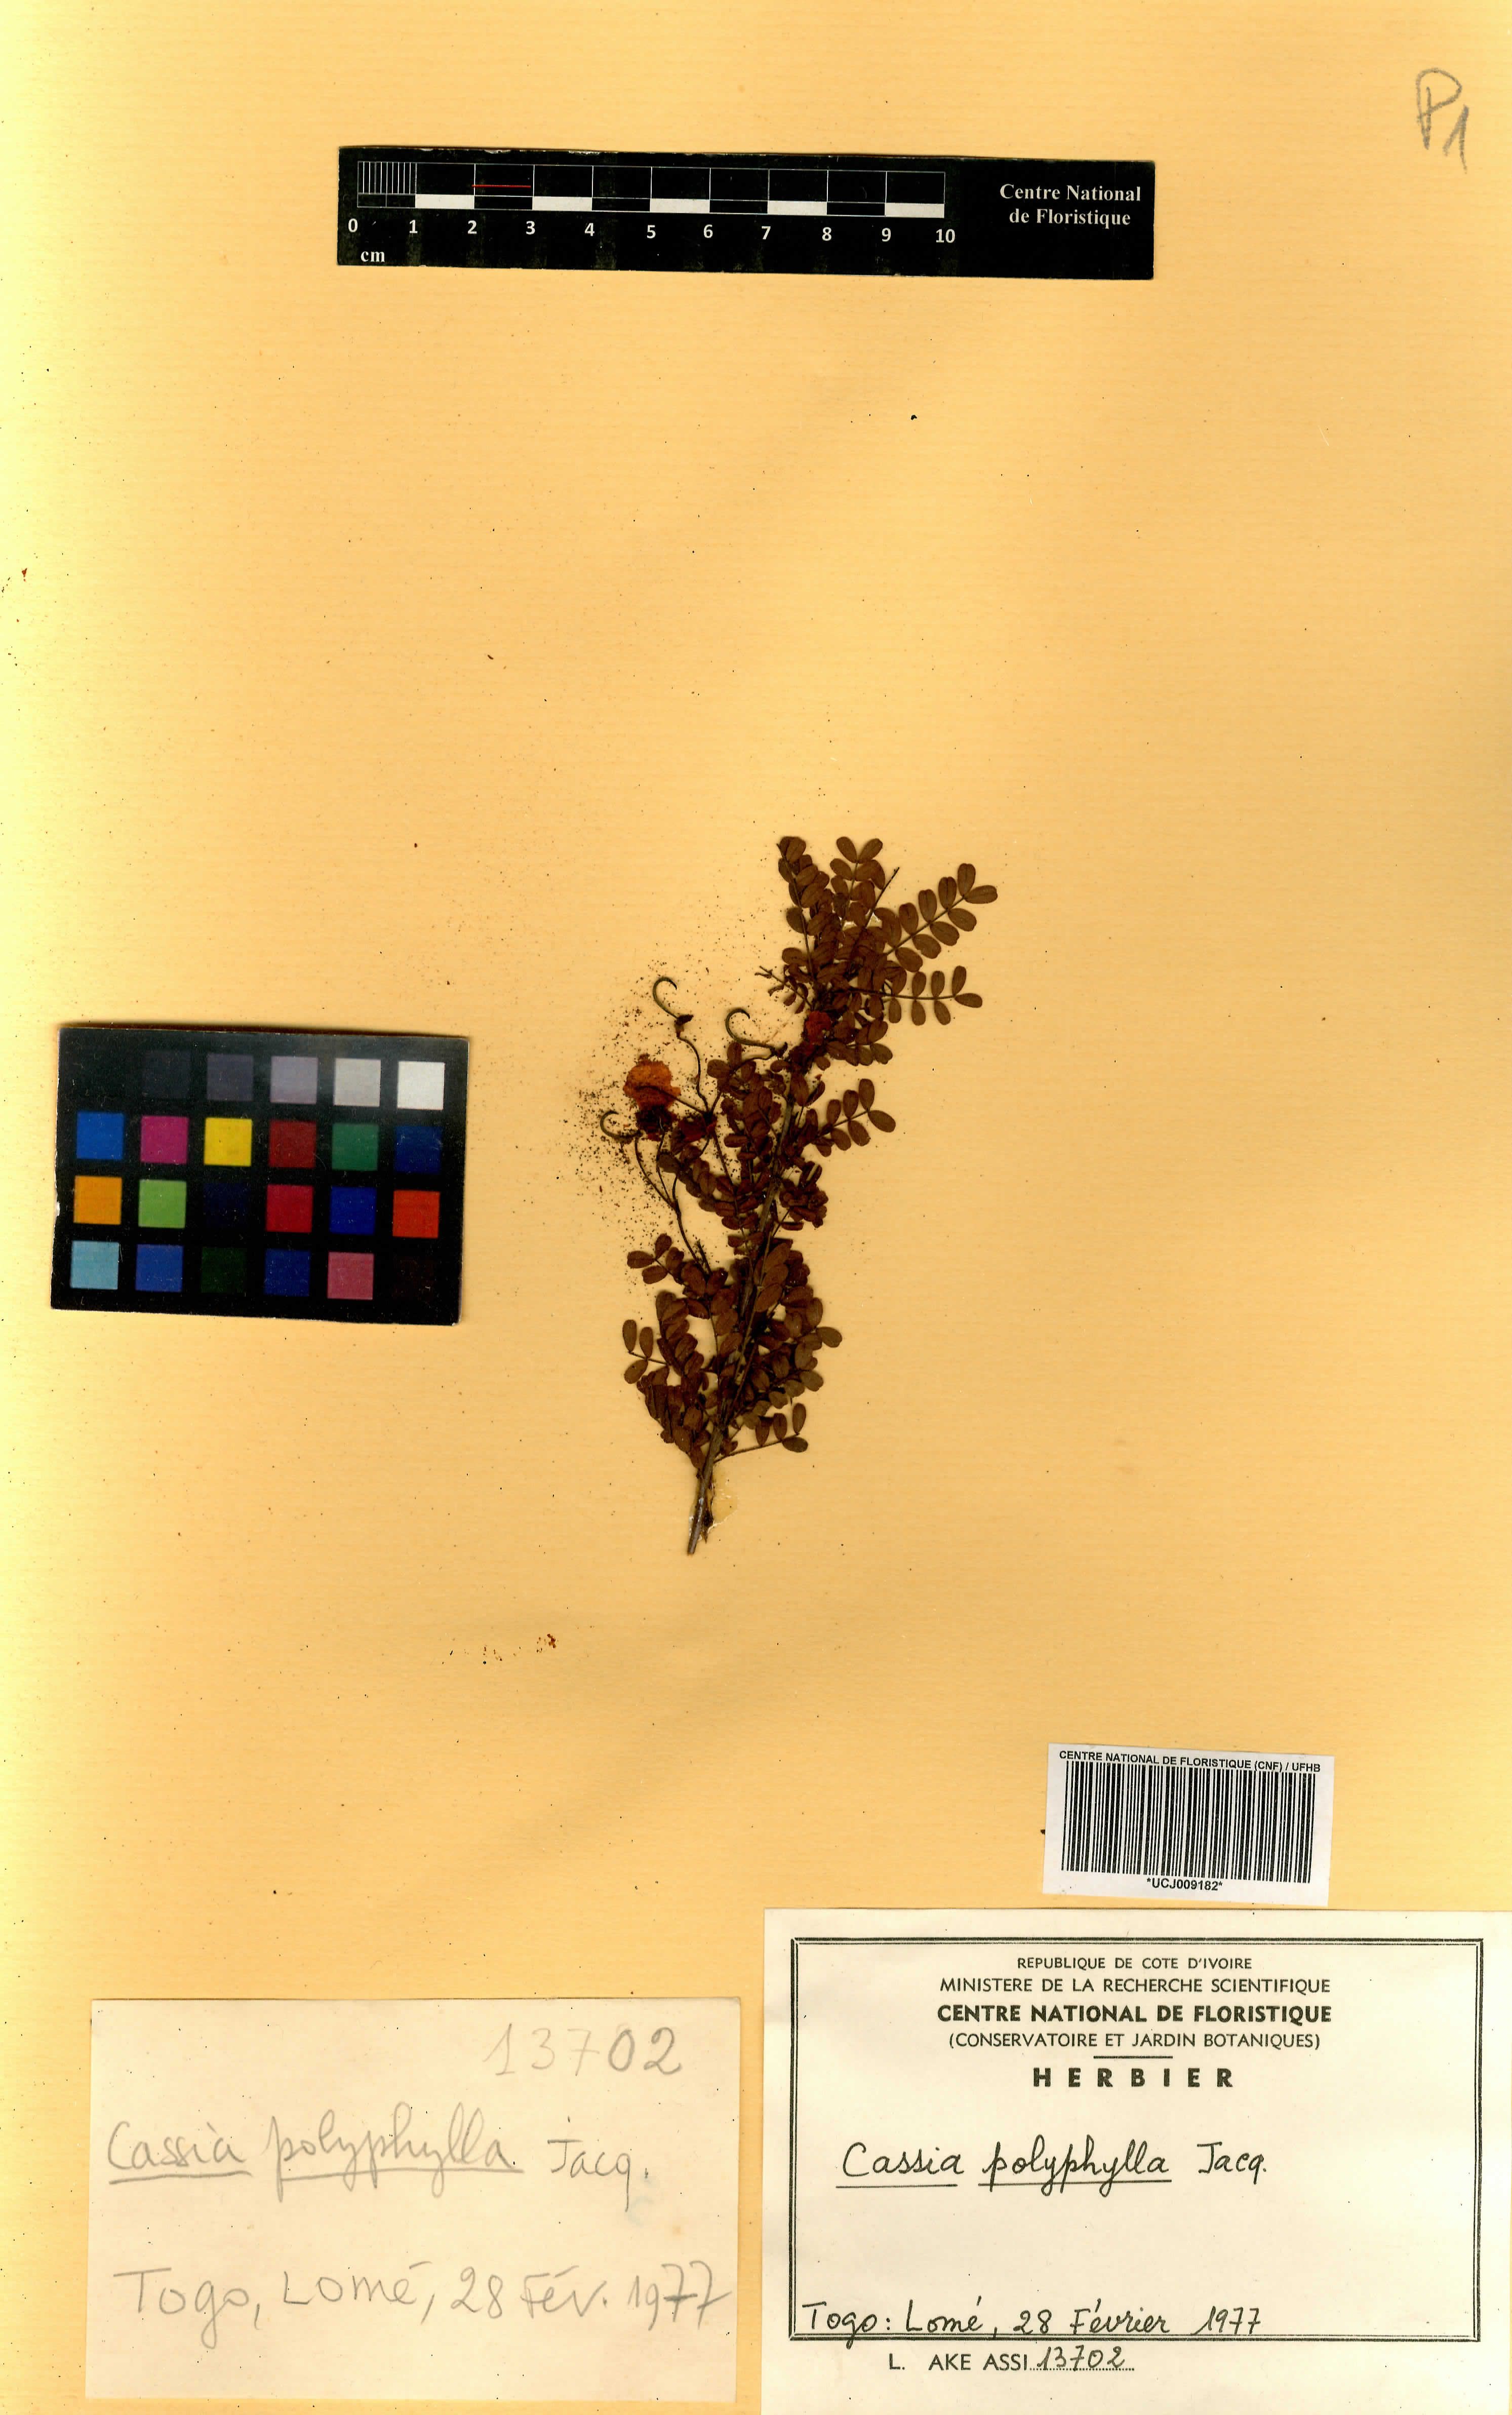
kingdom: Plantae
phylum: Tracheophyta
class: Magnoliopsida
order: Fabales
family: Fabaceae
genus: Senna
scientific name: Senna polyphylla
